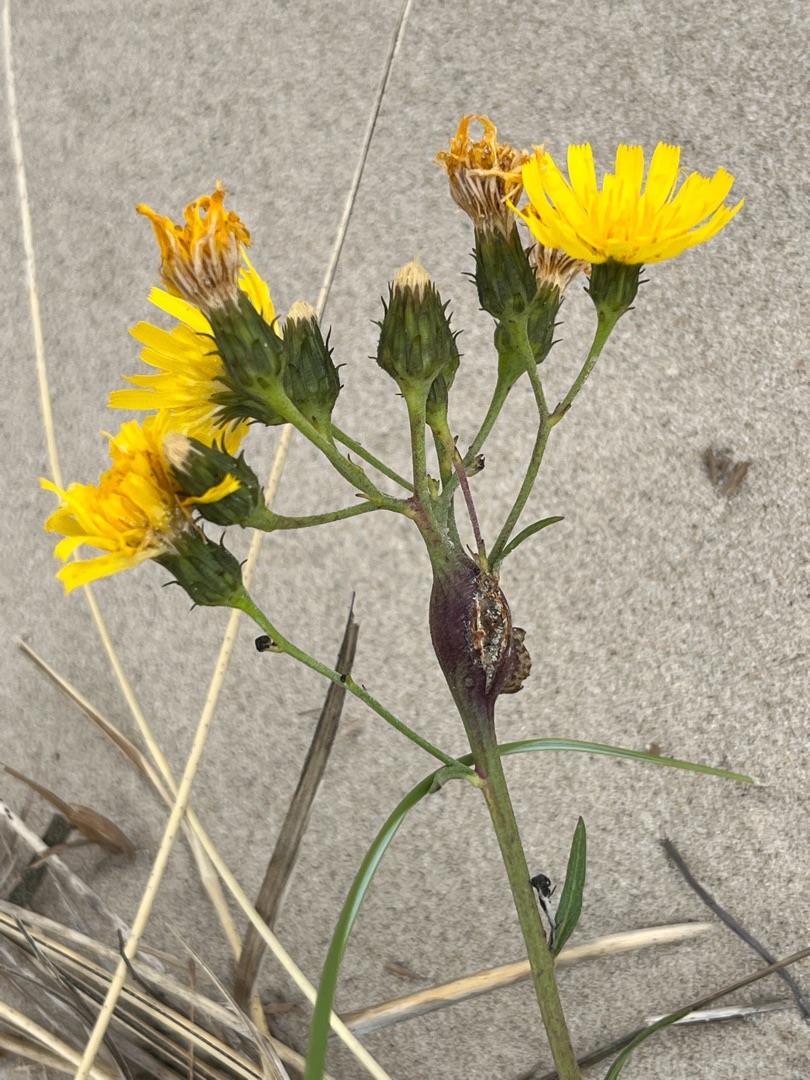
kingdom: Animalia
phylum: Arthropoda
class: Insecta
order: Hymenoptera
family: Cynipidae
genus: Aulacidea
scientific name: Aulacidea hieracii
